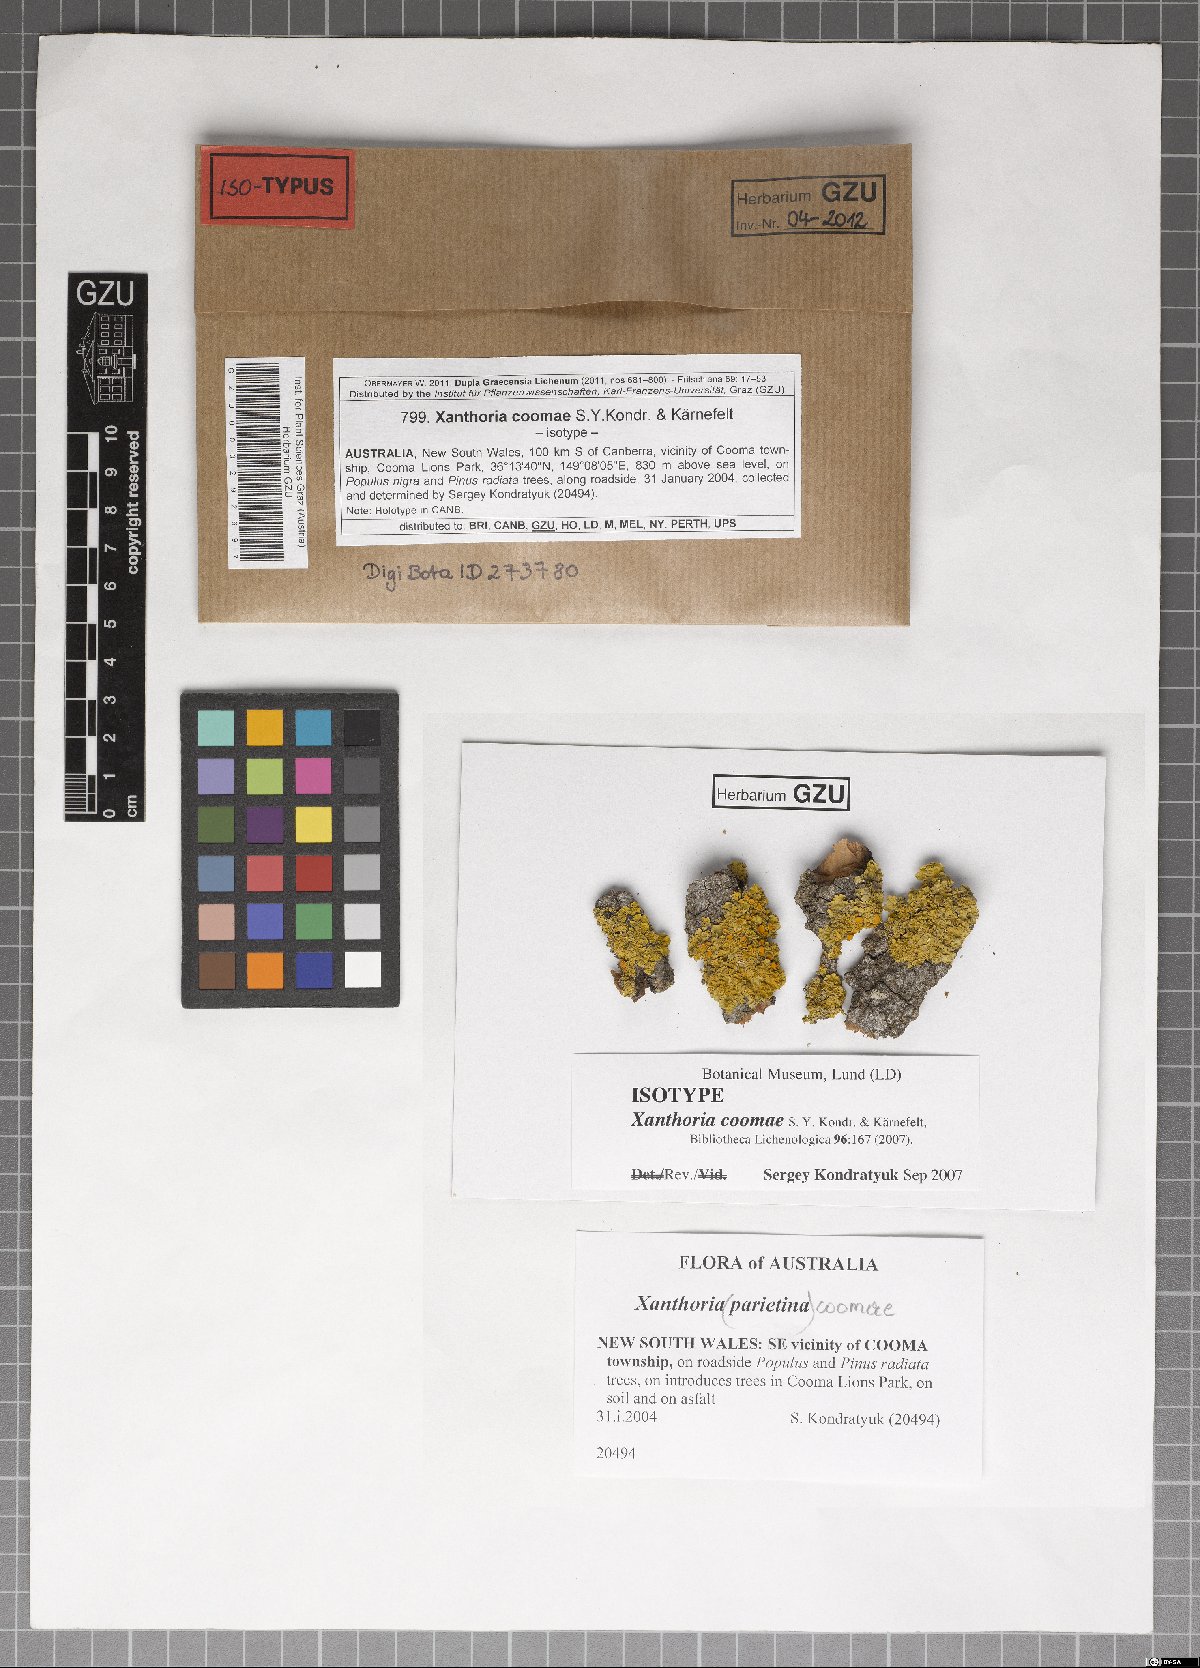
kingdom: Fungi
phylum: Ascomycota
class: Lecanoromycetes
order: Teloschistales
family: Teloschistaceae
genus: Xanthoria
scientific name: Xanthoria coomae
